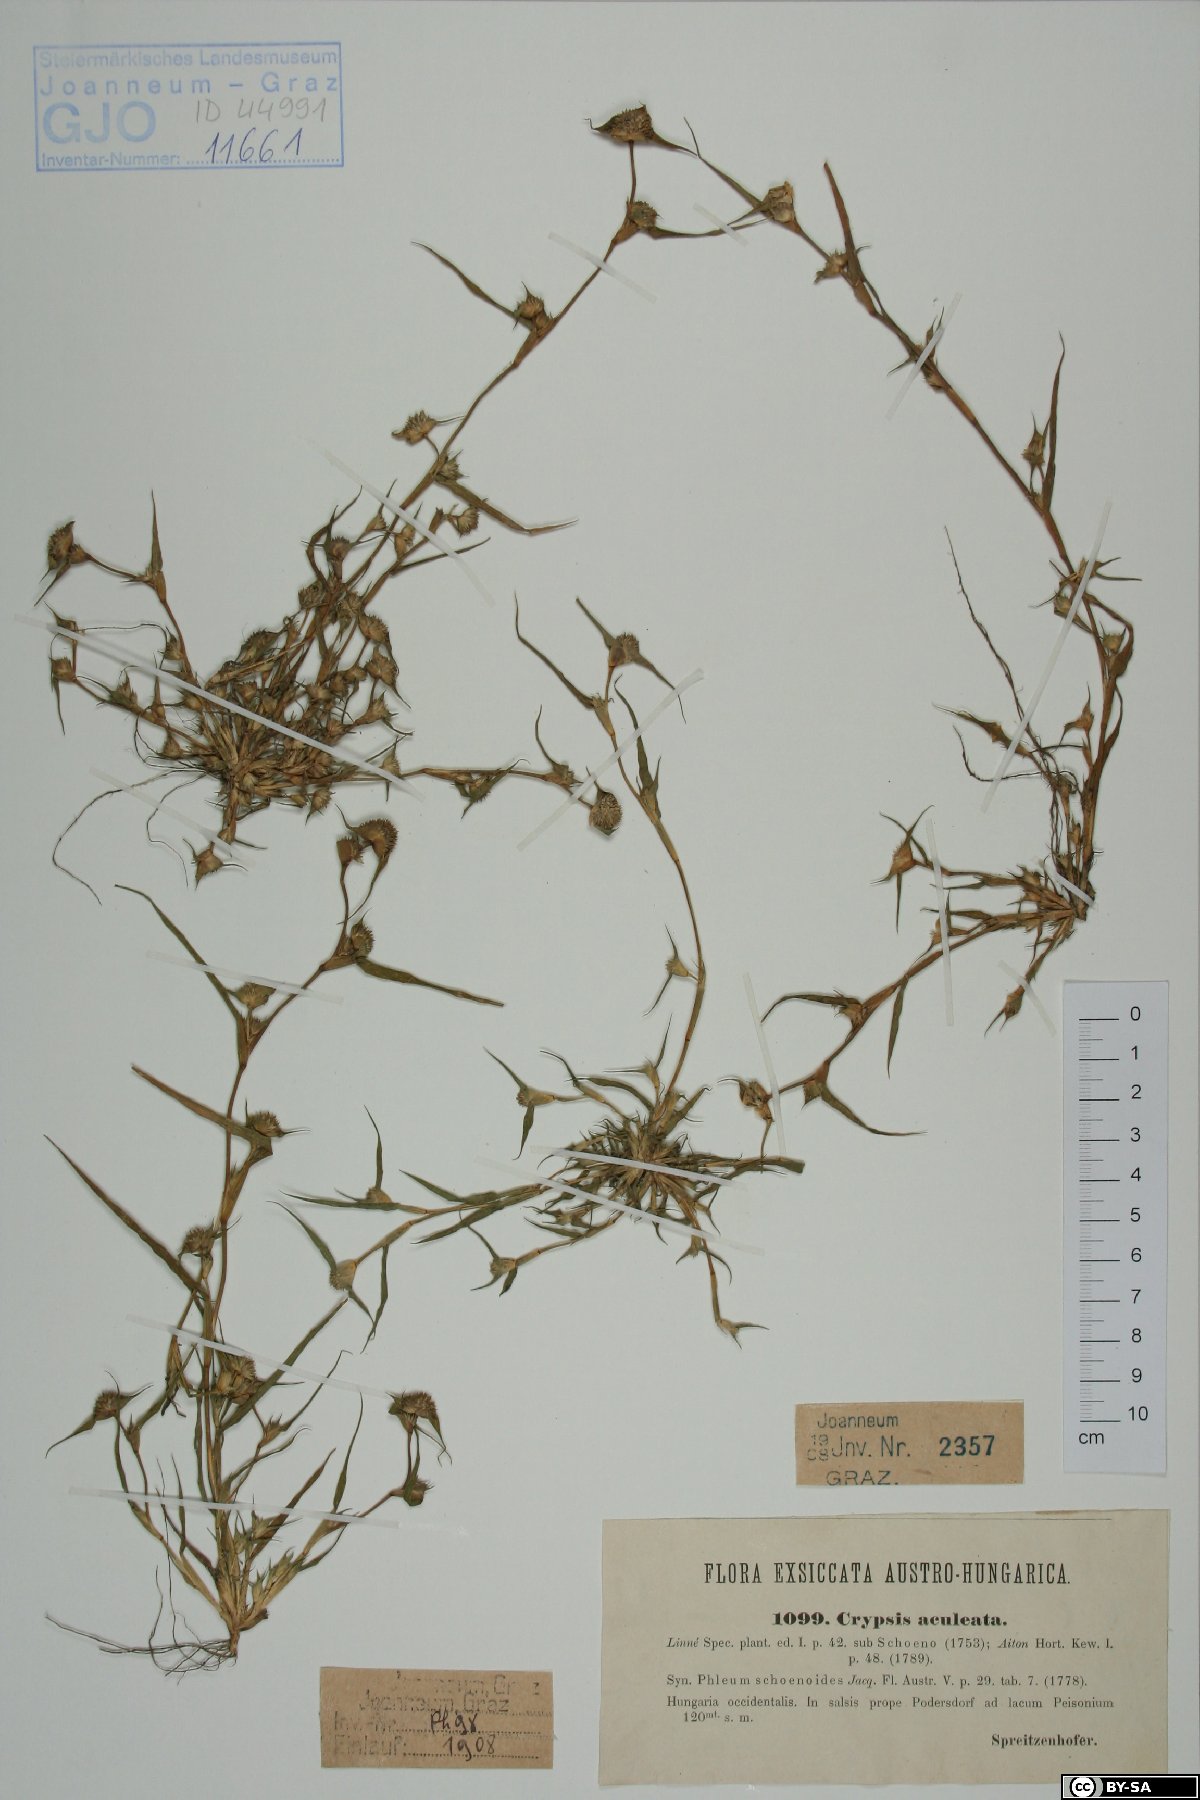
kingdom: Plantae
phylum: Tracheophyta
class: Liliopsida
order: Poales
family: Poaceae
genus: Sporobolus
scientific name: Sporobolus aculeatus
